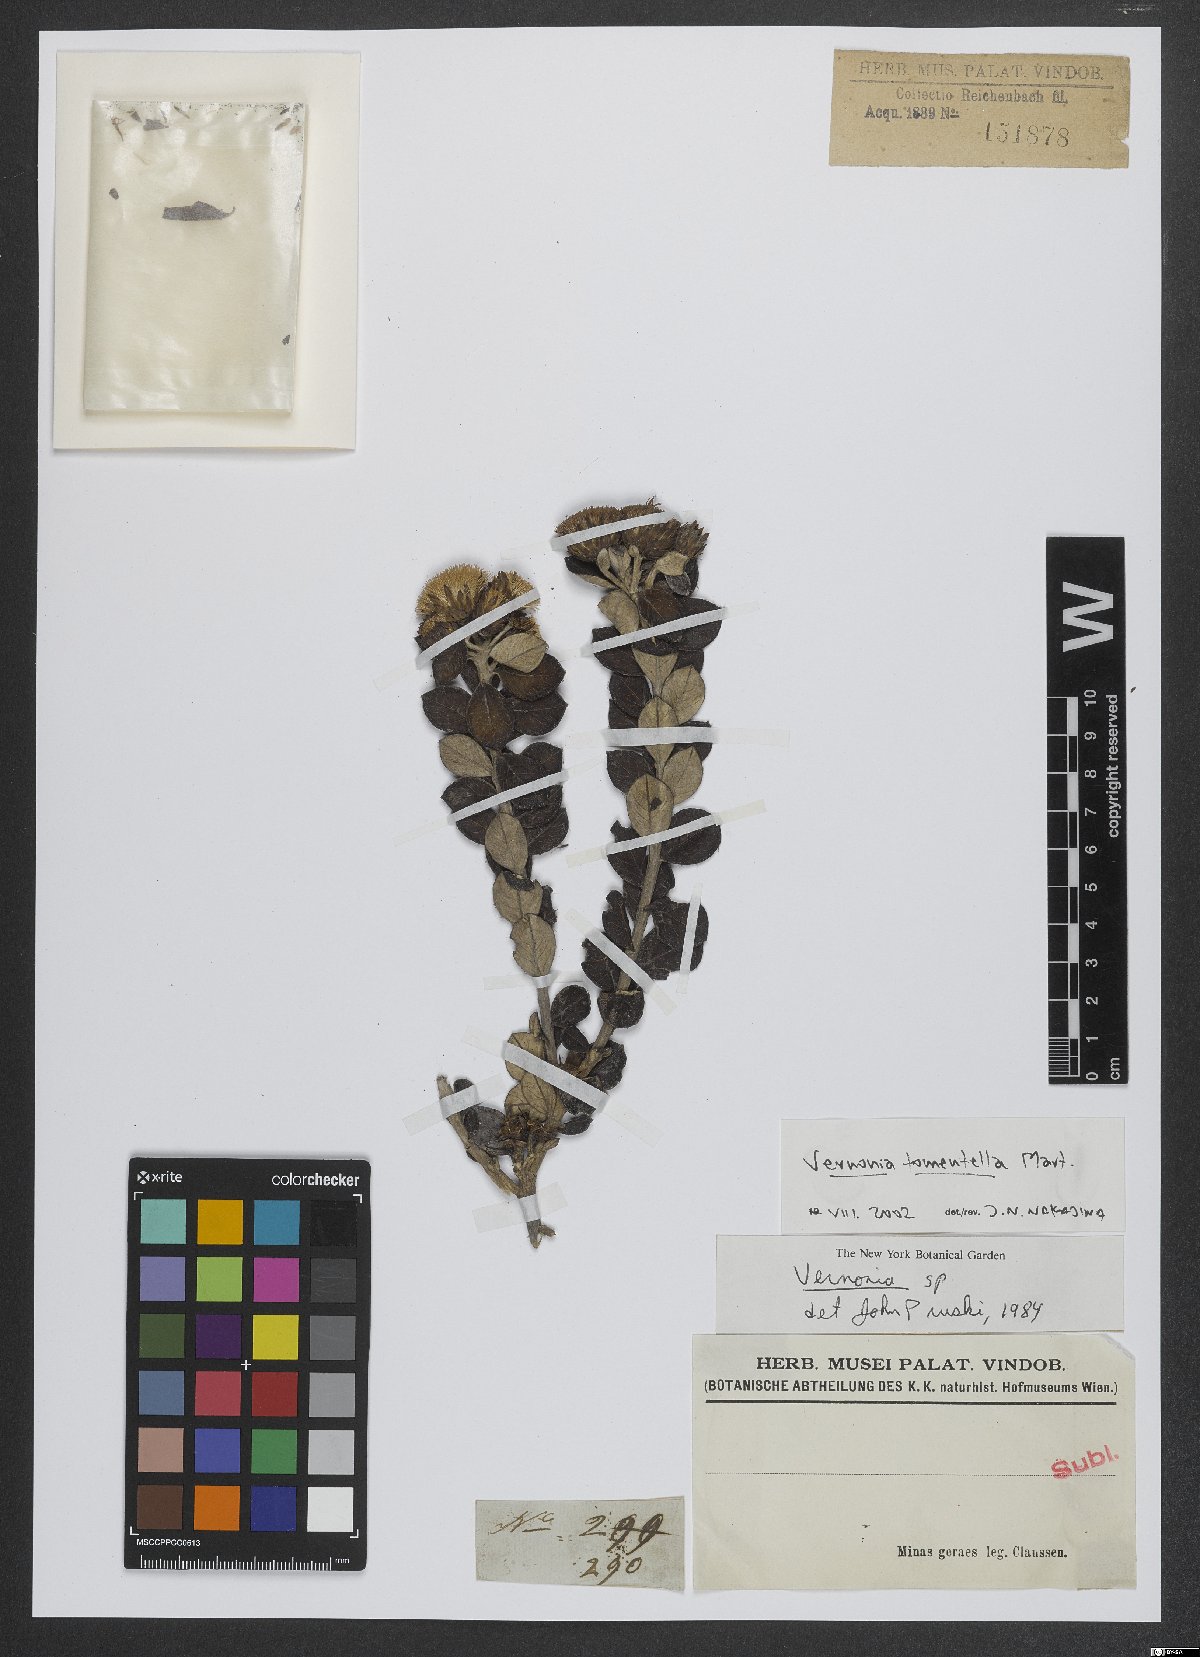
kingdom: Plantae
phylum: Tracheophyta
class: Magnoliopsida
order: Asterales
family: Asteraceae
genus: Lessingianthus
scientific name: Lessingianthus tomentellus
